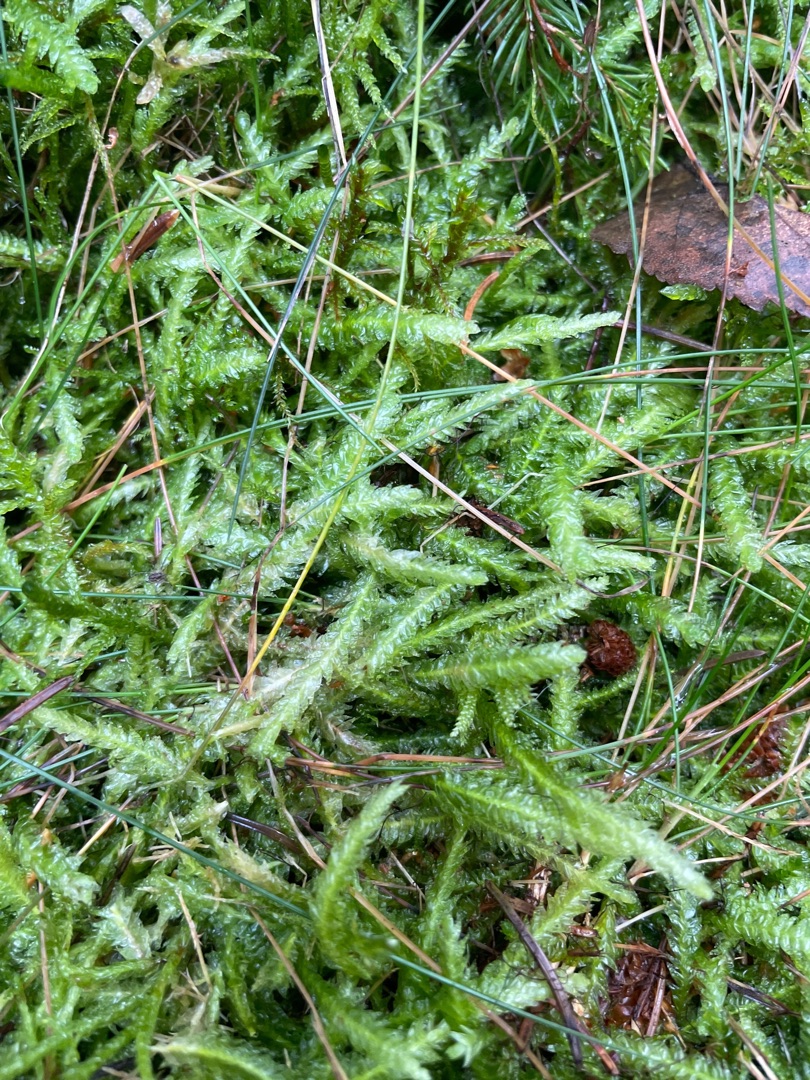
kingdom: Plantae
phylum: Bryophyta
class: Bryopsida
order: Hypnales
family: Plagiotheciaceae
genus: Plagiothecium
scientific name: Plagiothecium undulatum
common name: Bølget tæppemos
